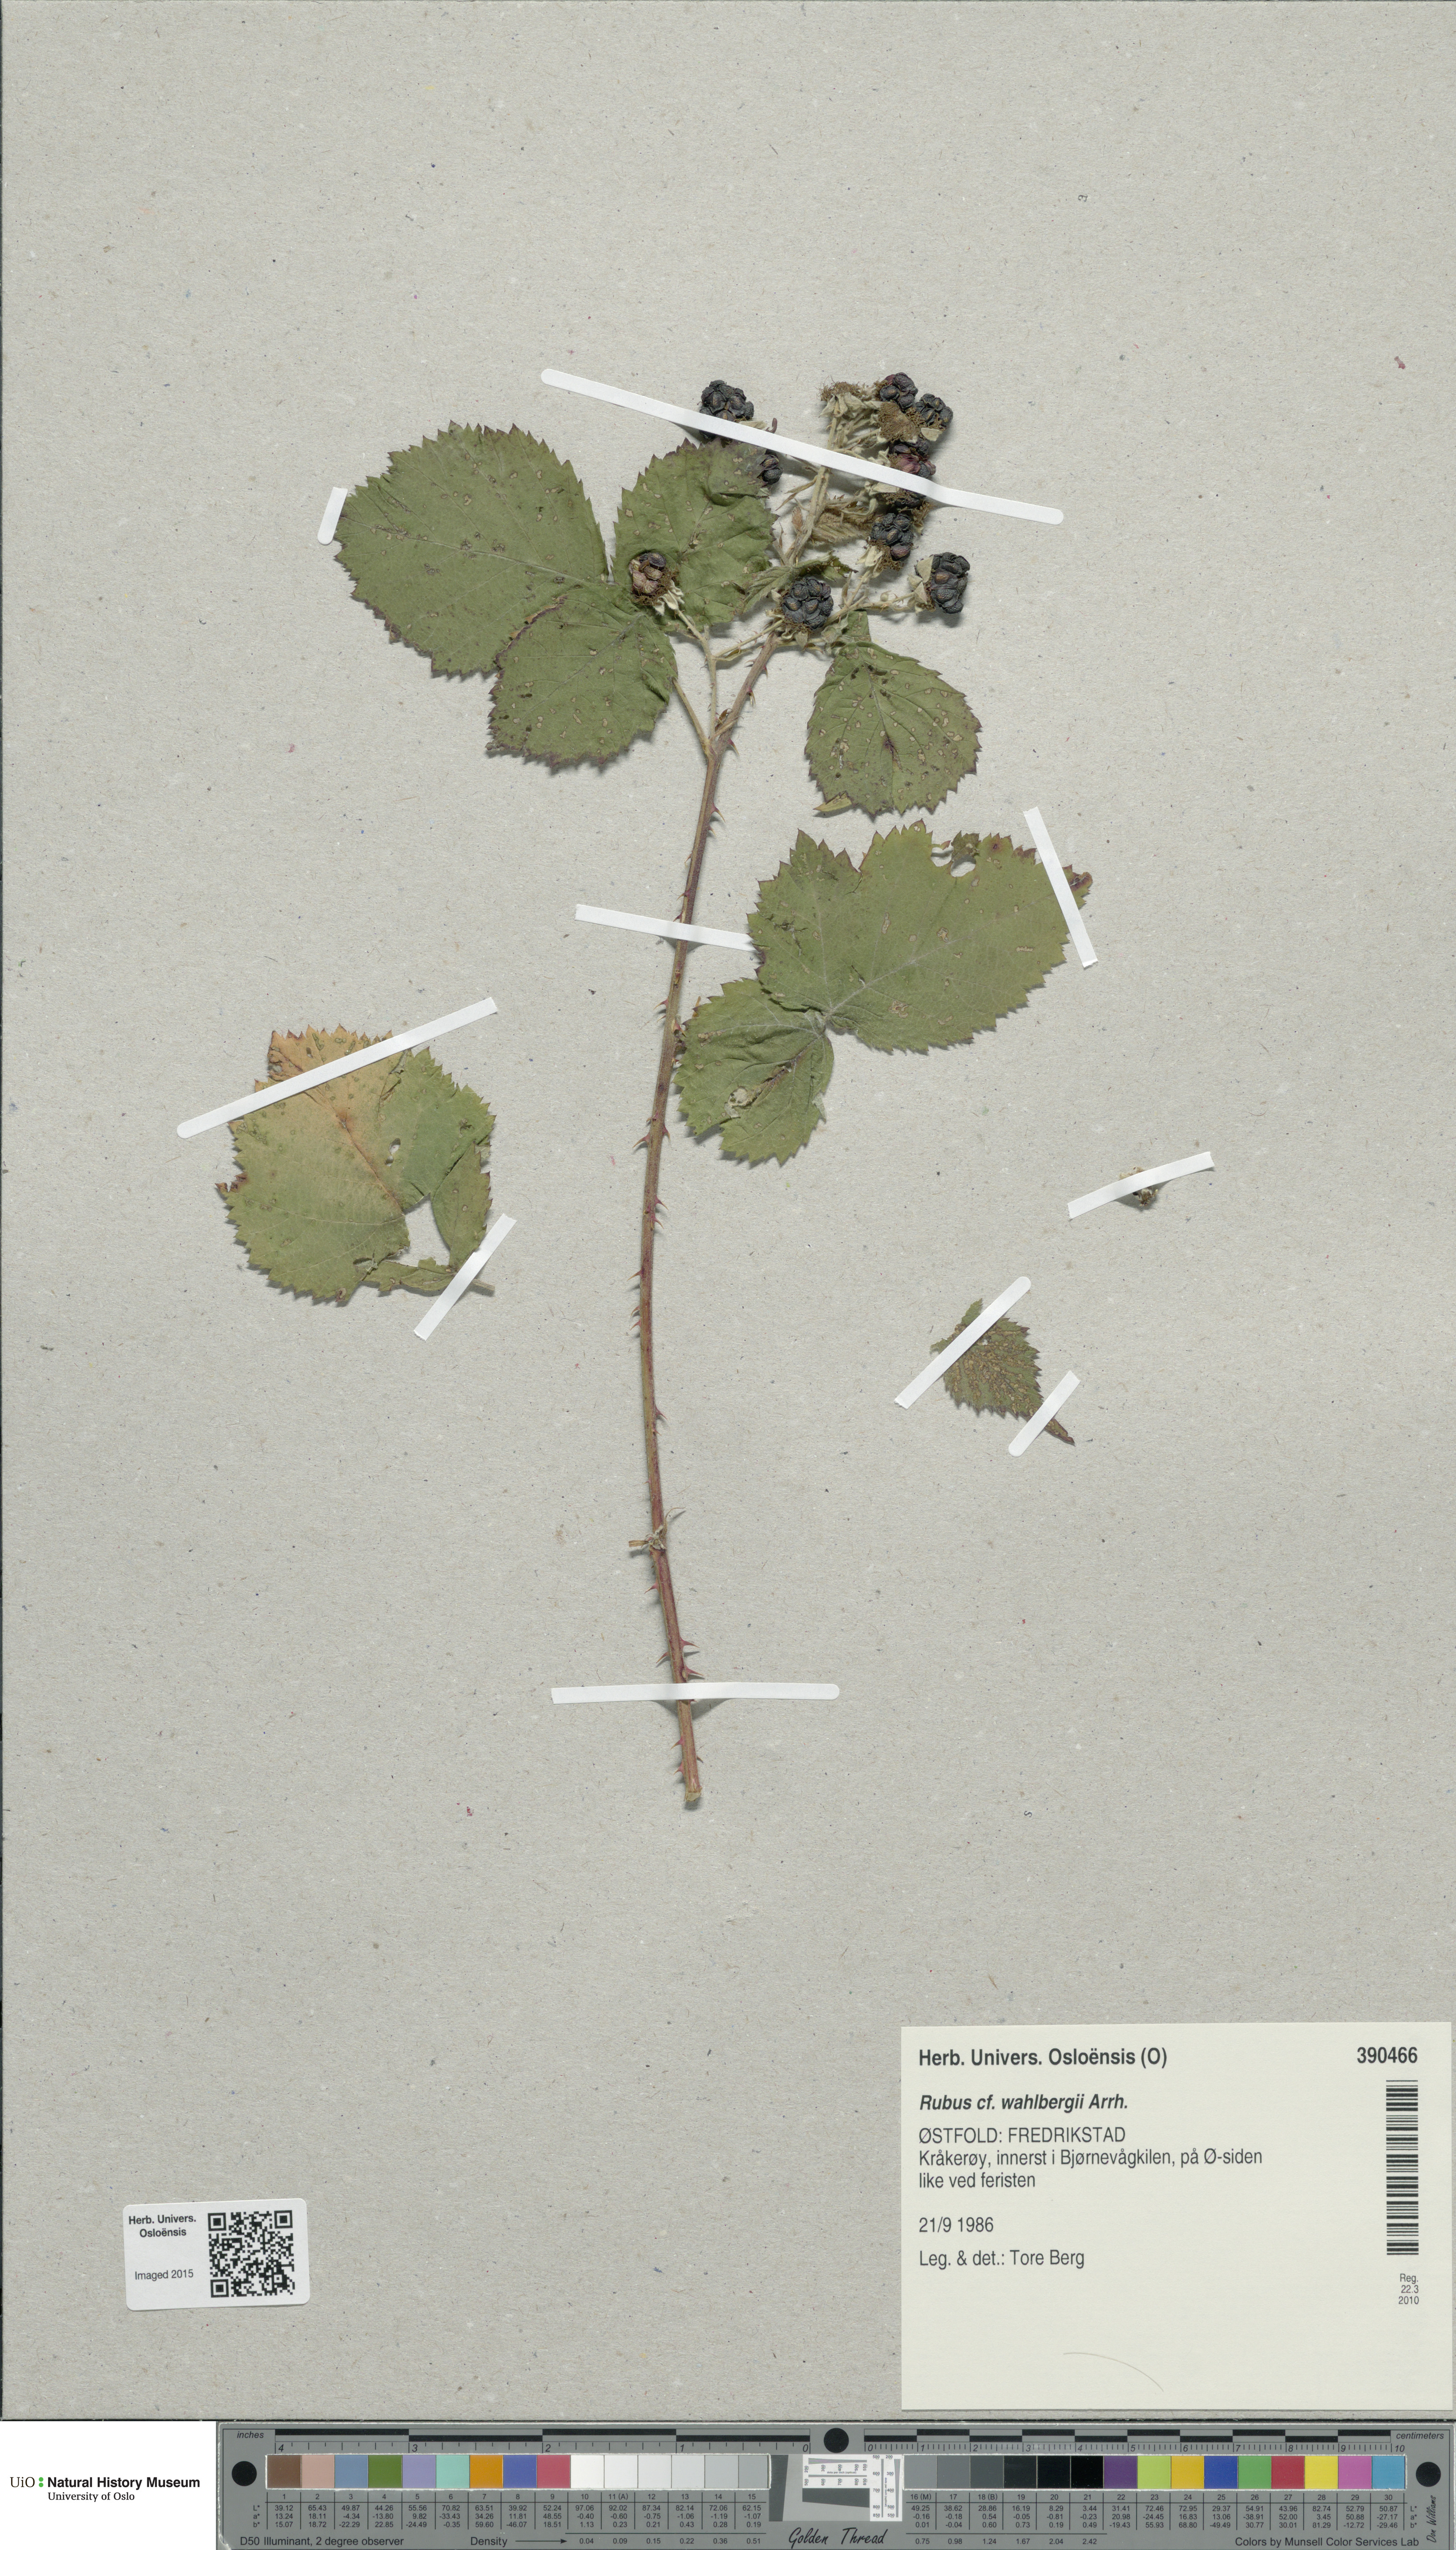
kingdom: Plantae
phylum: Tracheophyta
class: Magnoliopsida
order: Rosales
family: Rosaceae
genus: Rubus
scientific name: Rubus wahlbergii
